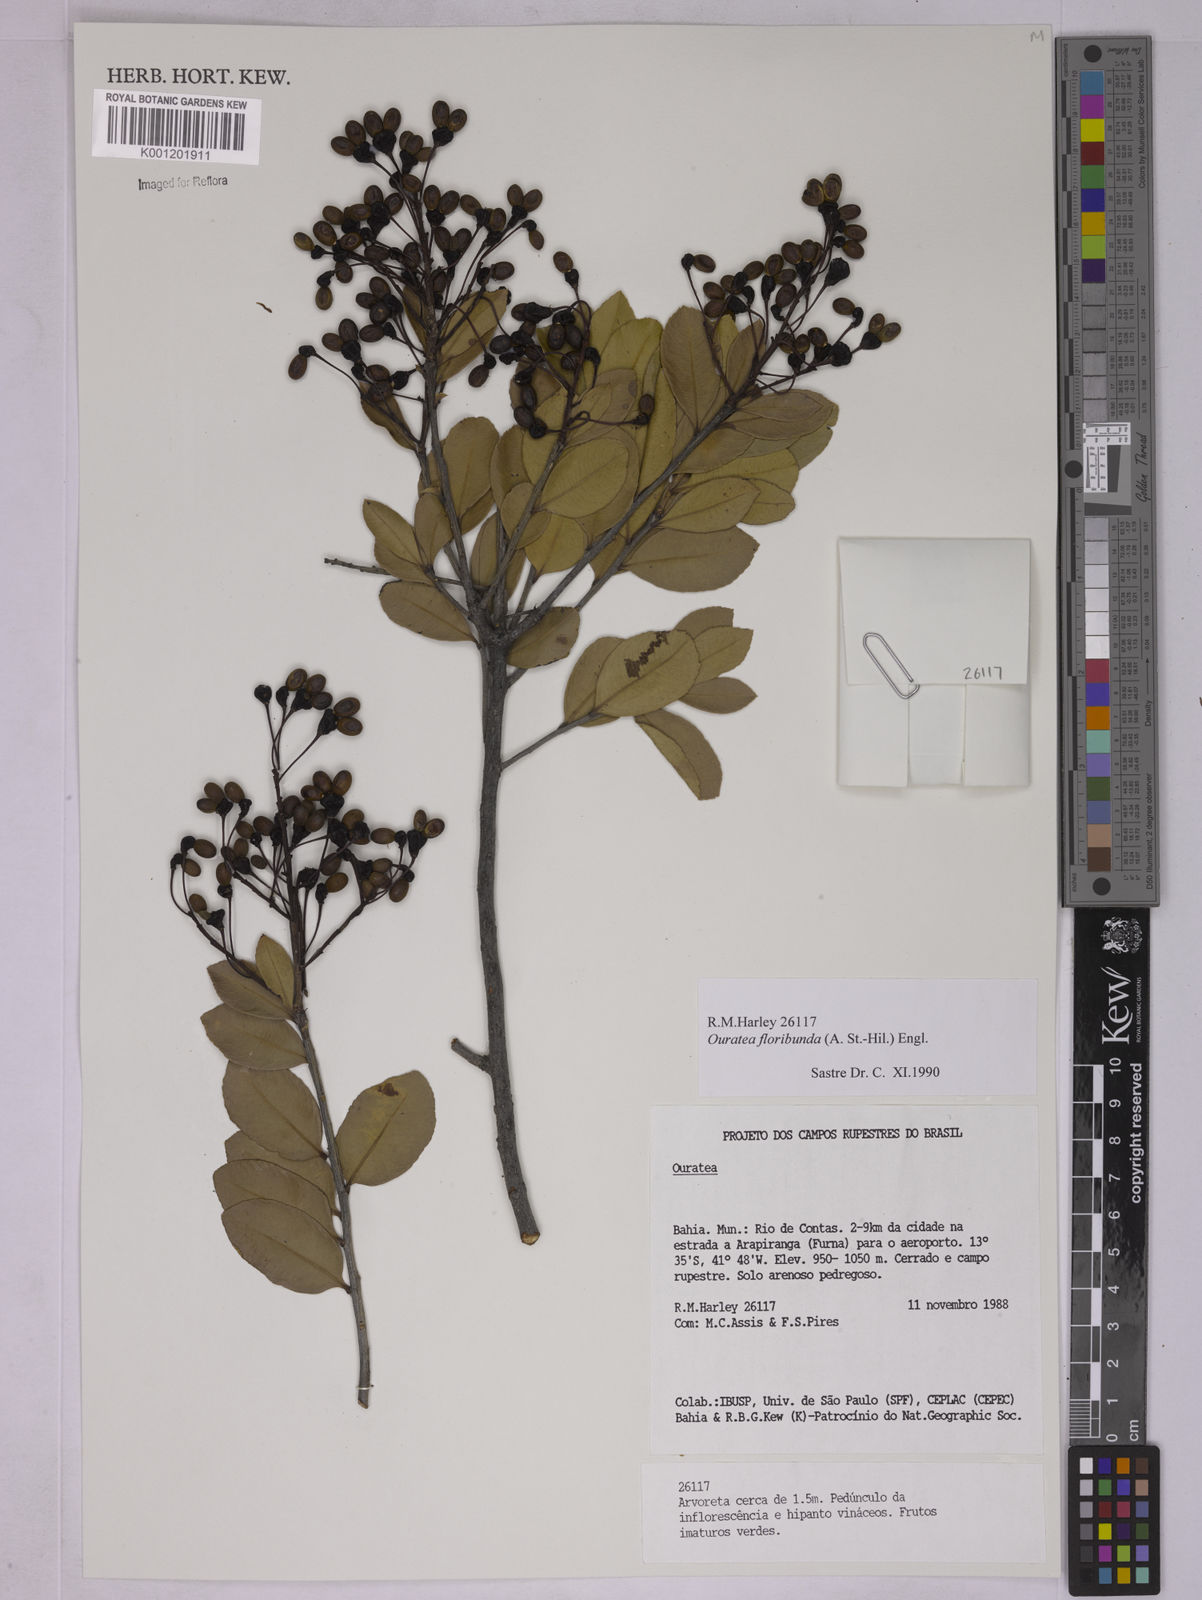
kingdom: Plantae
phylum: Tracheophyta
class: Magnoliopsida
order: Malpighiales
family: Ochnaceae
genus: Ouratea
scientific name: Ouratea floribunda
